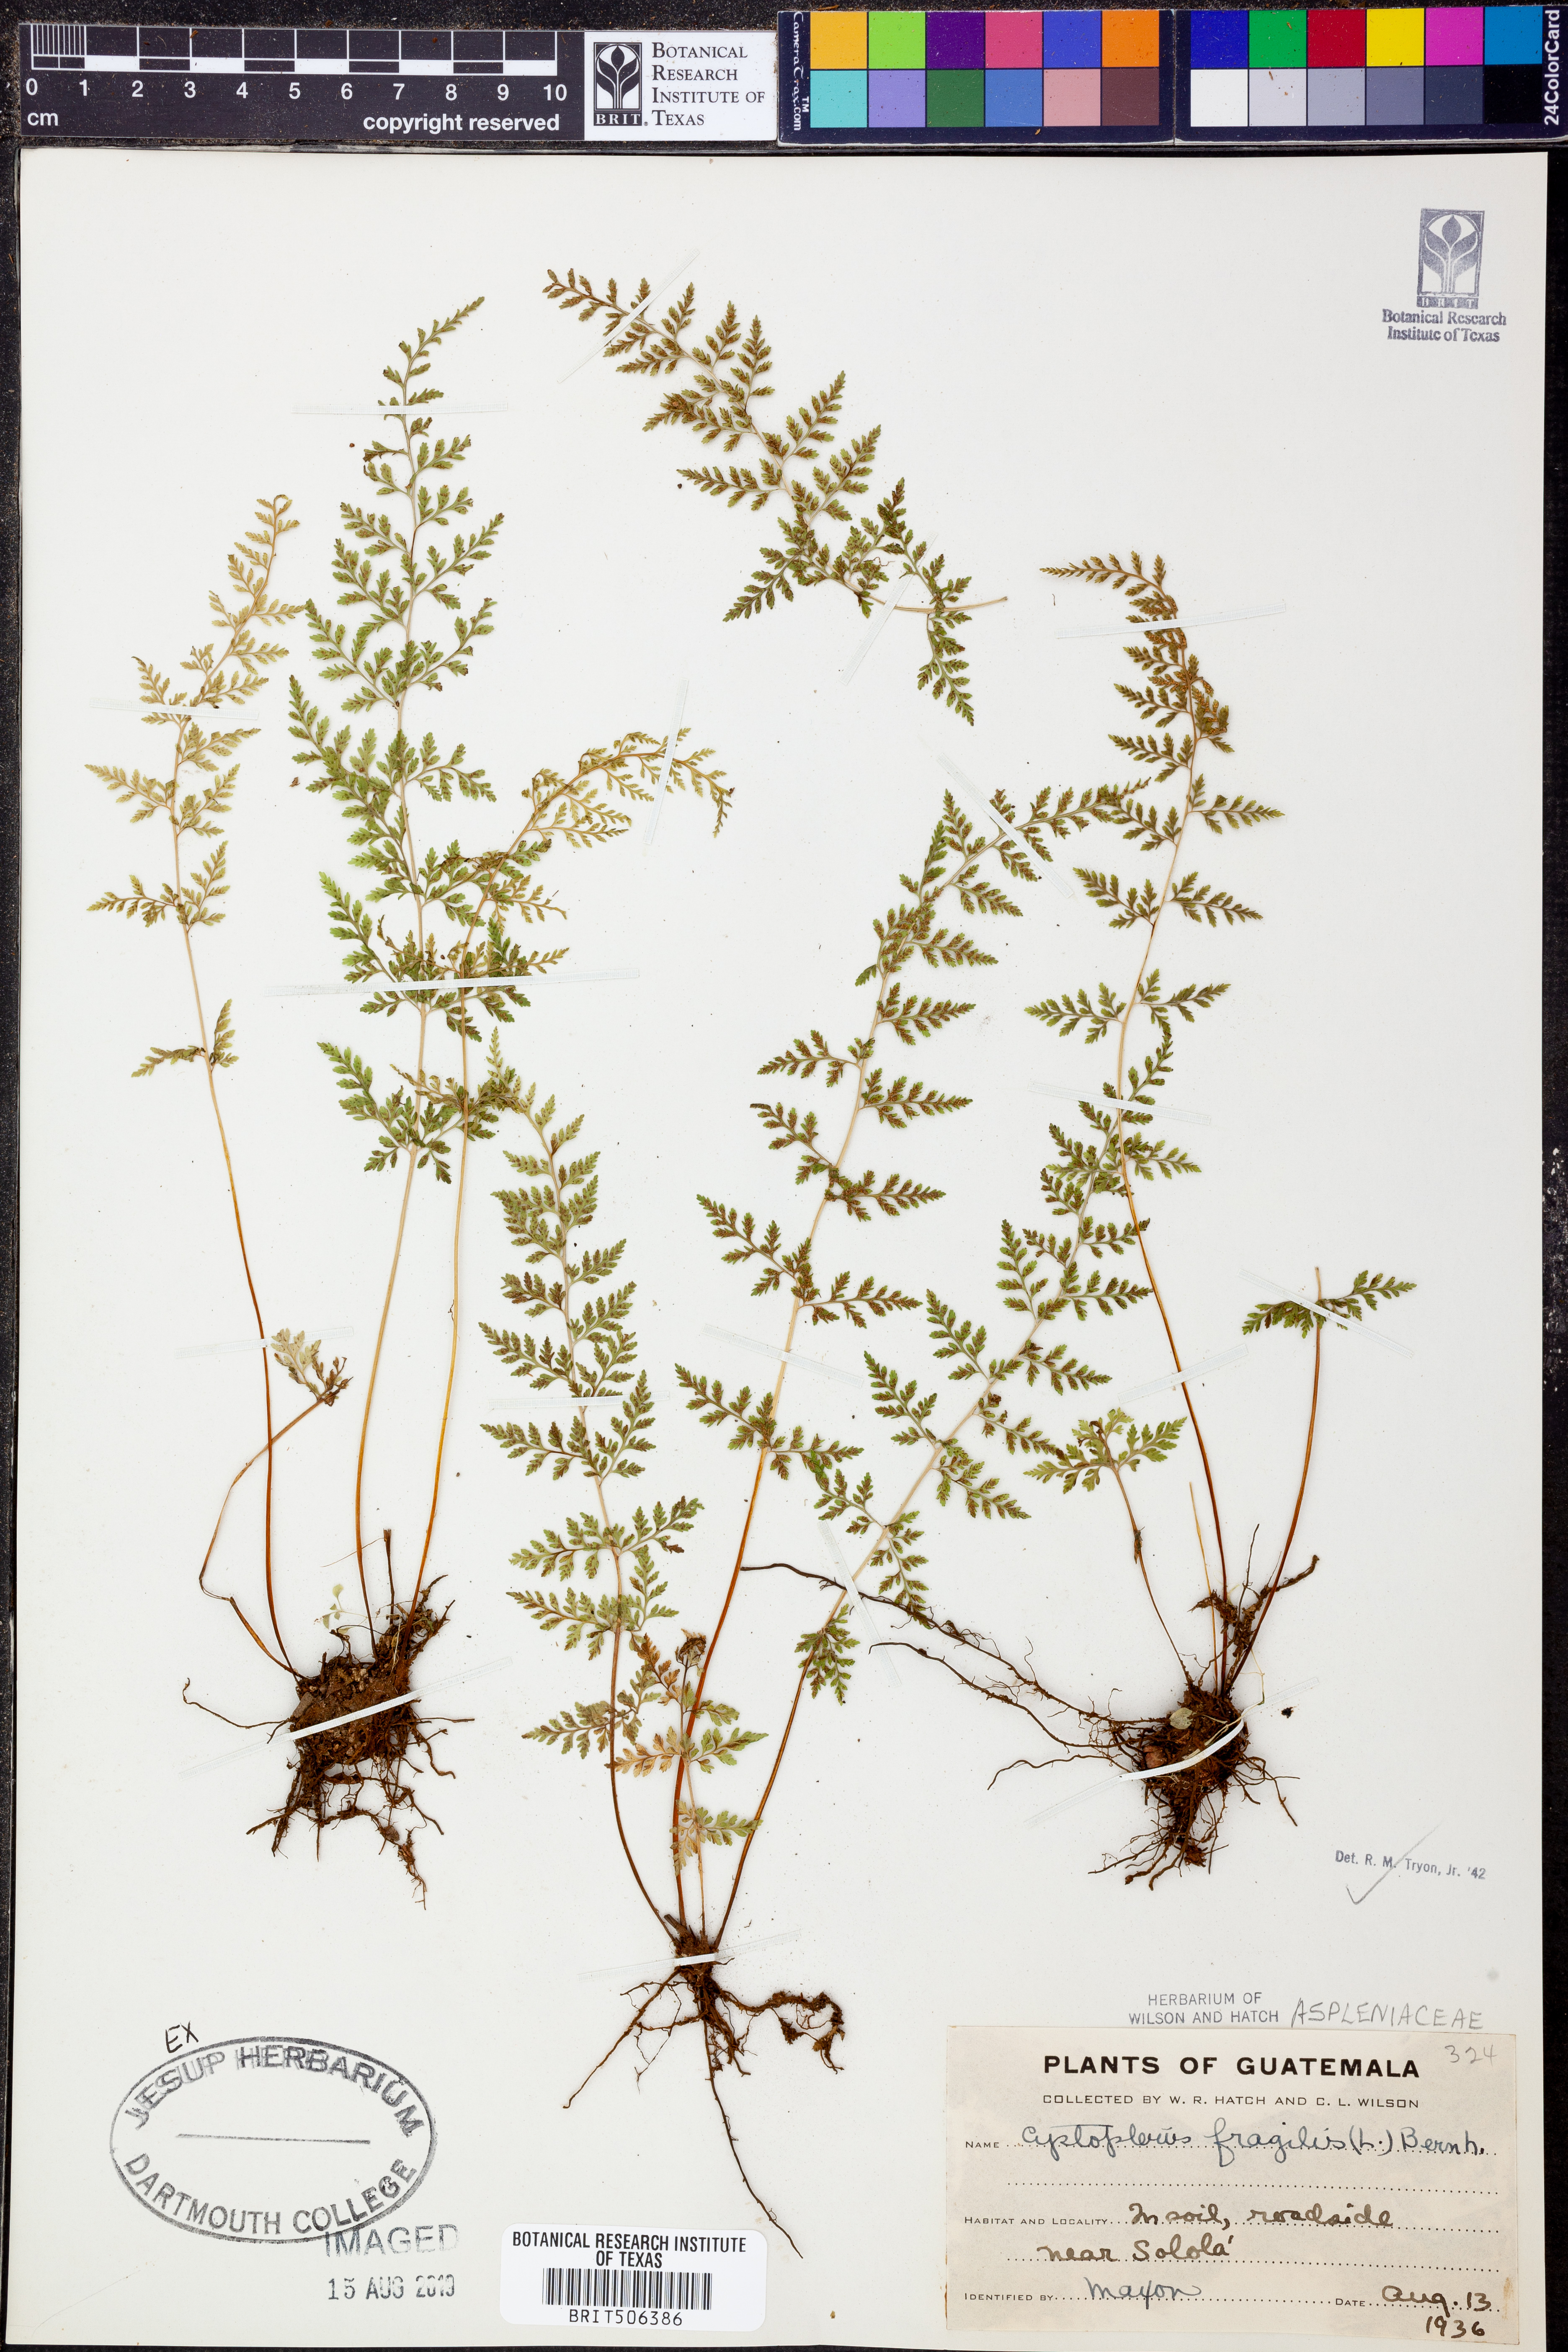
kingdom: Plantae
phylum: Tracheophyta
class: Polypodiopsida
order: Polypodiales
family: Cystopteridaceae
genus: Cystopteris
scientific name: Cystopteris fragilis
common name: Brittle bladder fern
